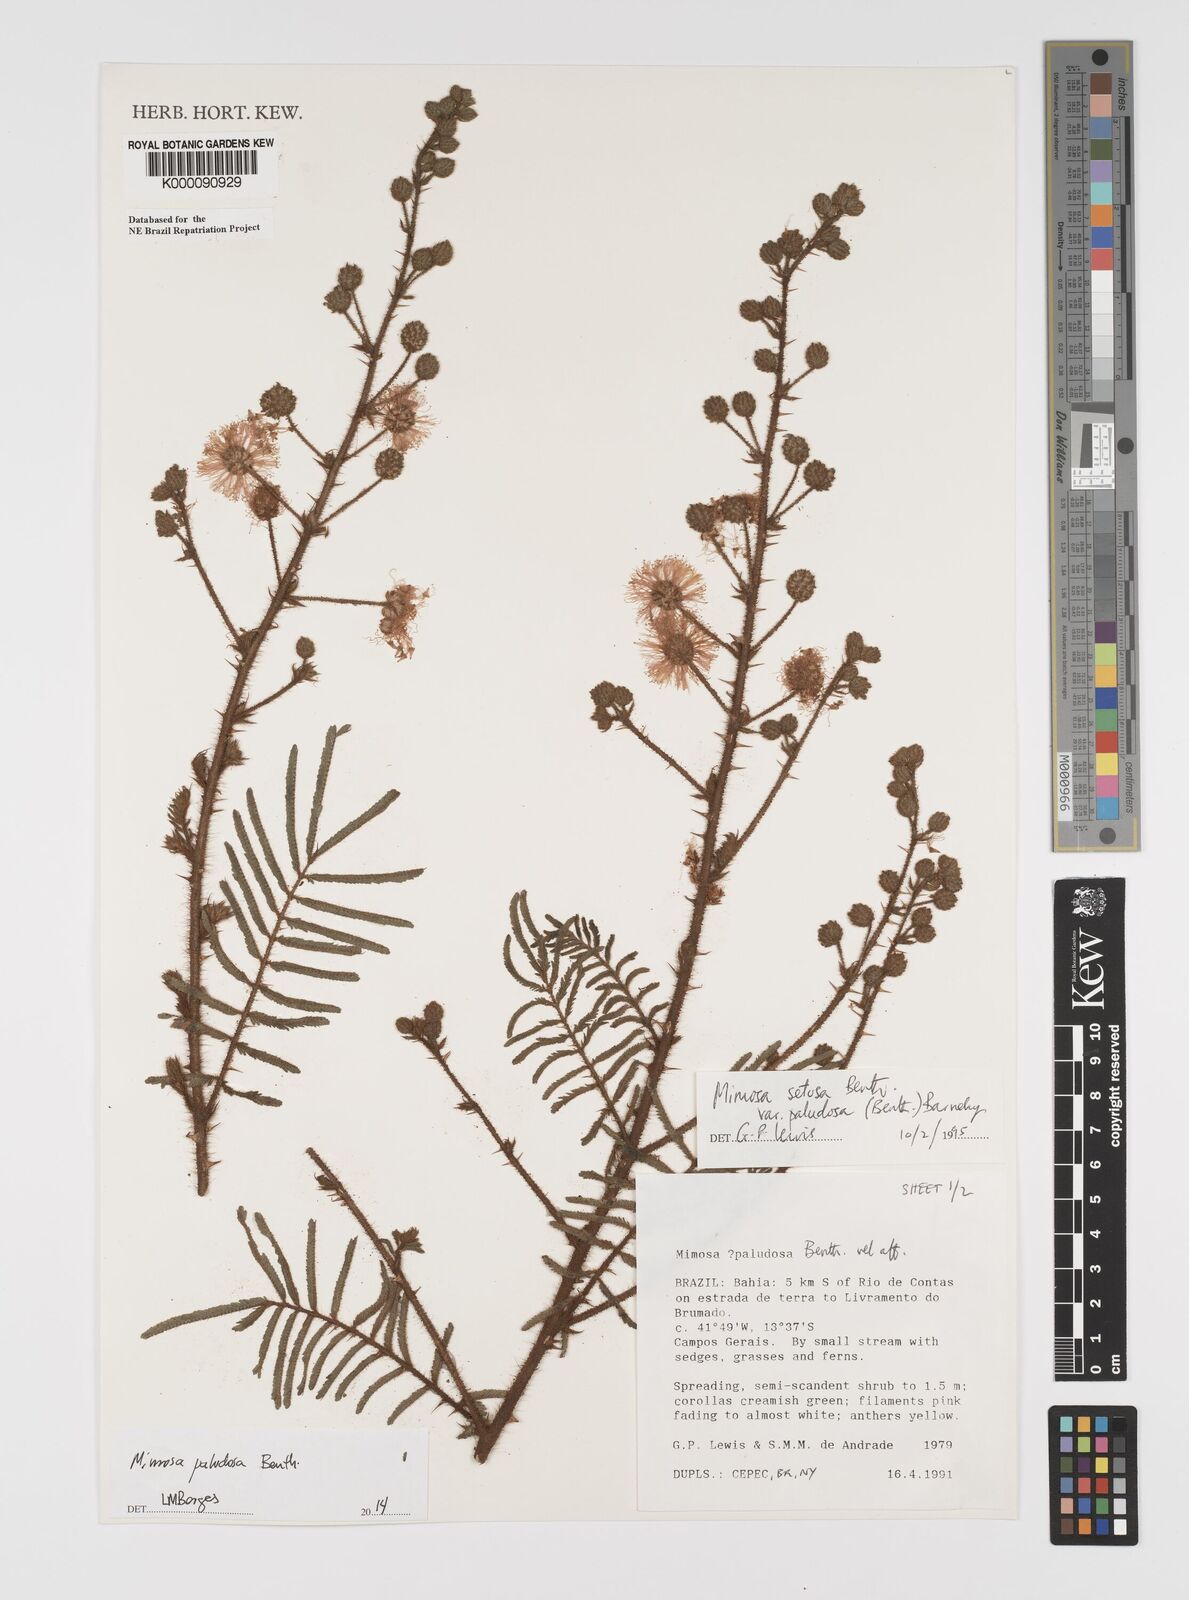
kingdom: Plantae
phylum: Tracheophyta
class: Magnoliopsida
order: Fabales
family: Fabaceae
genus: Mimosa
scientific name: Mimosa paludosa
